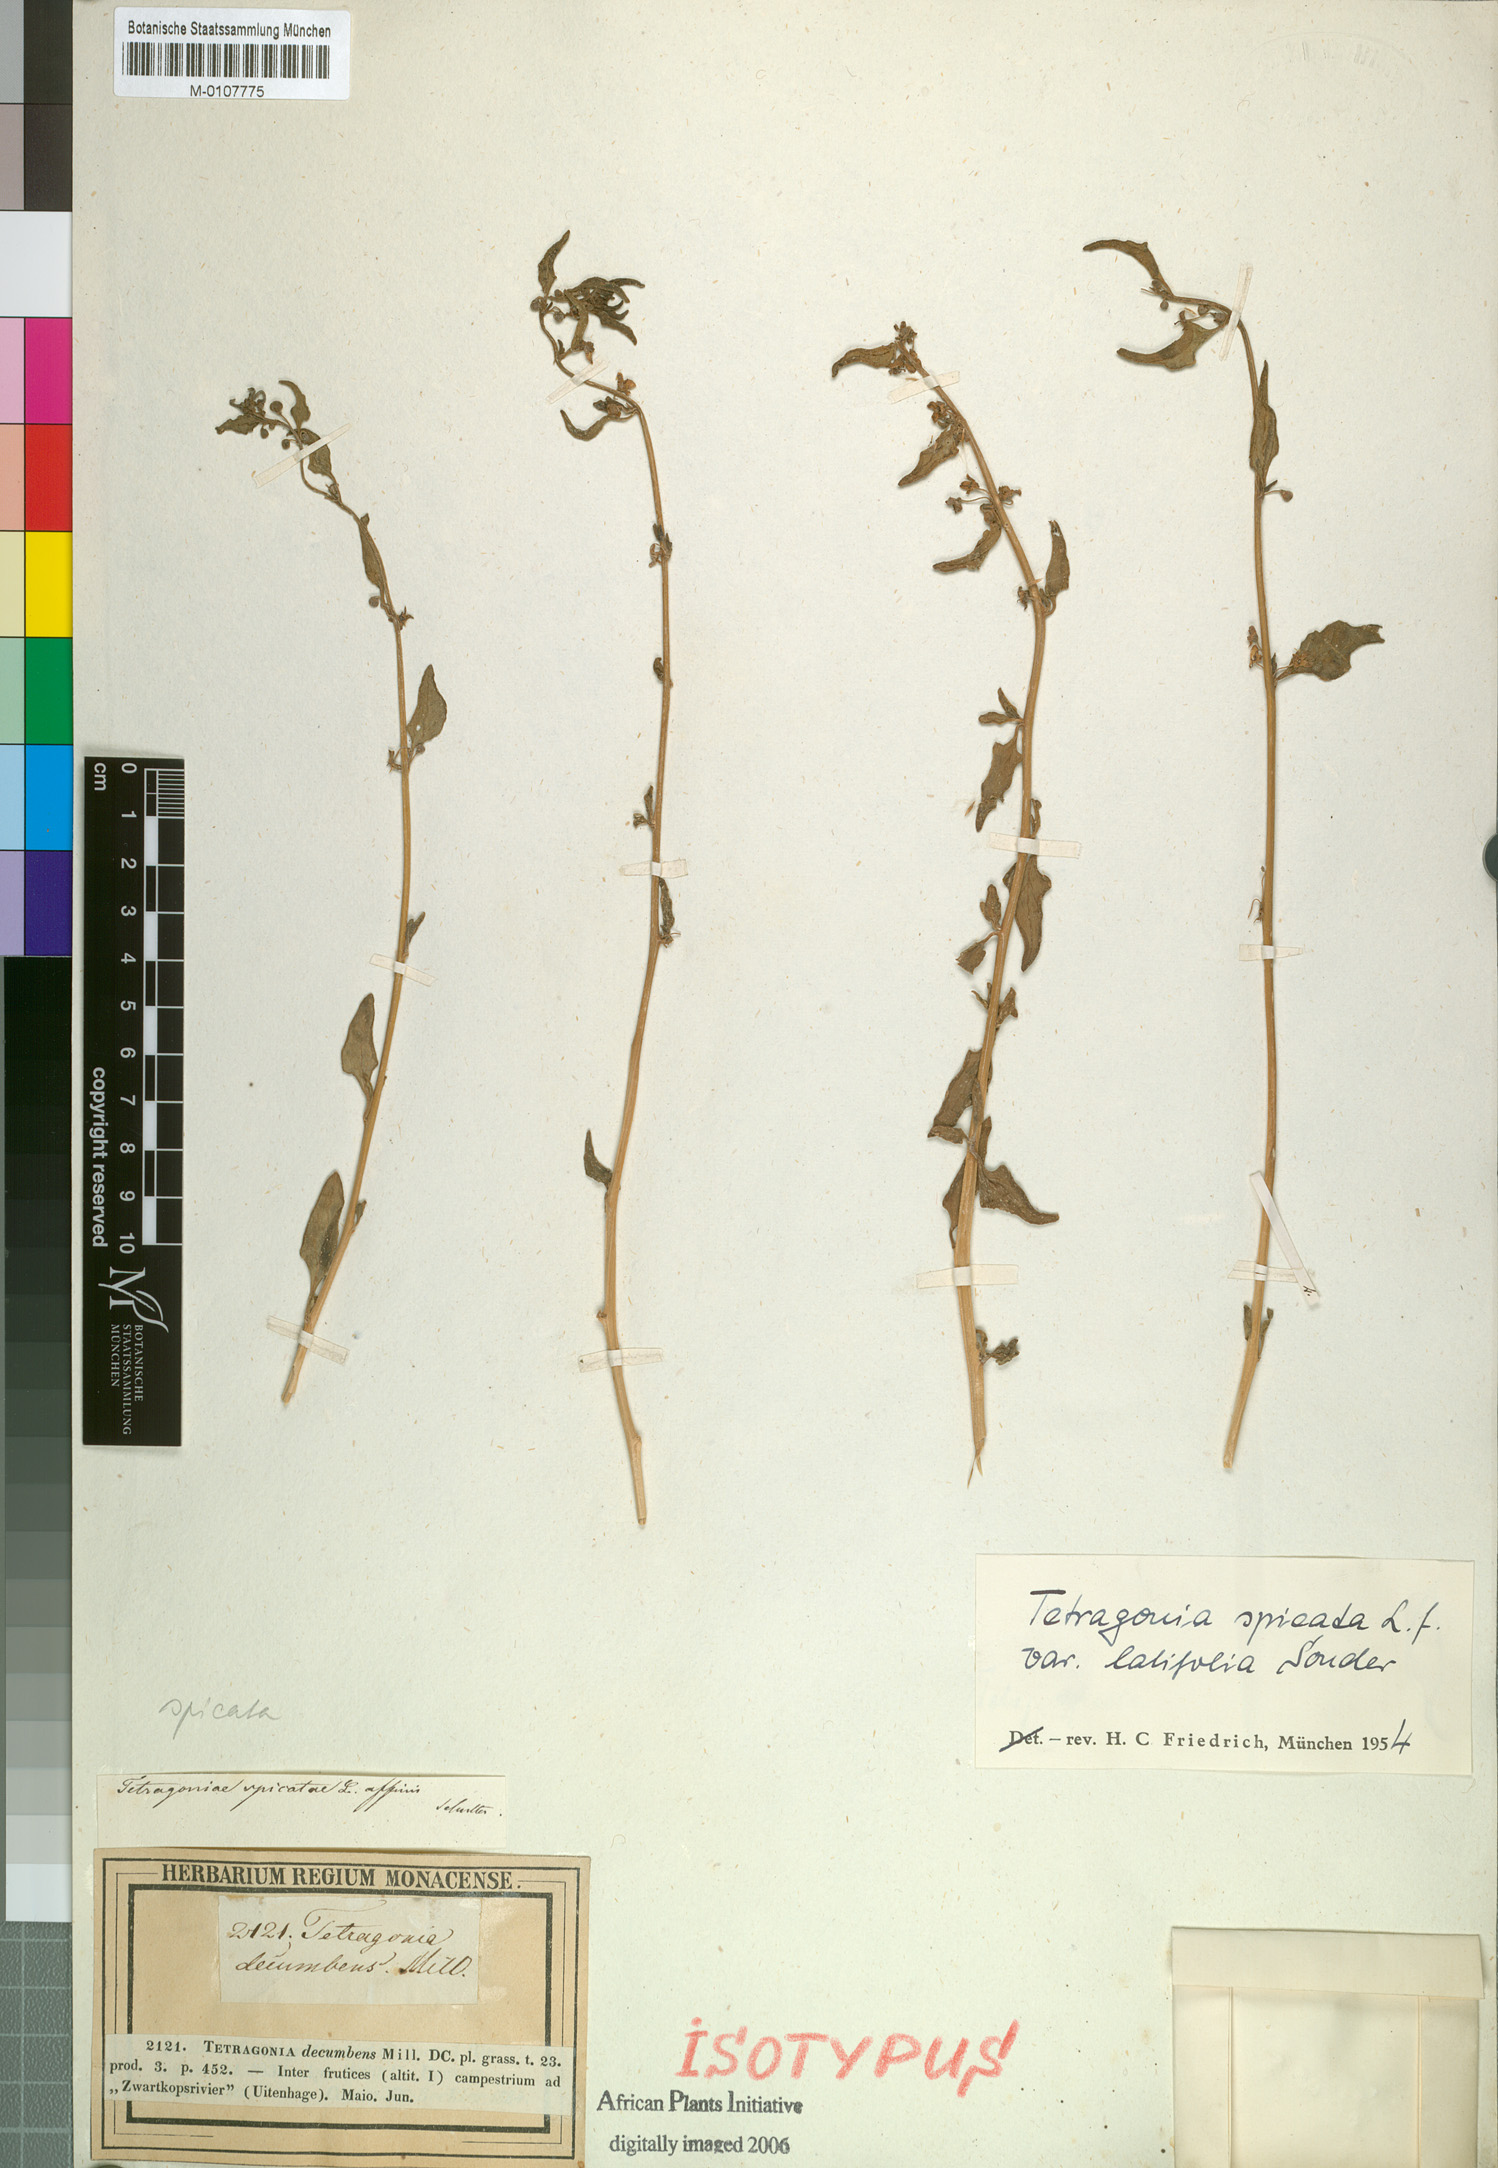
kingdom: Plantae
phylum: Tracheophyta
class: Magnoliopsida
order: Caryophyllales
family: Aizoaceae
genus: Tetragonia
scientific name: Tetragonia spicata
